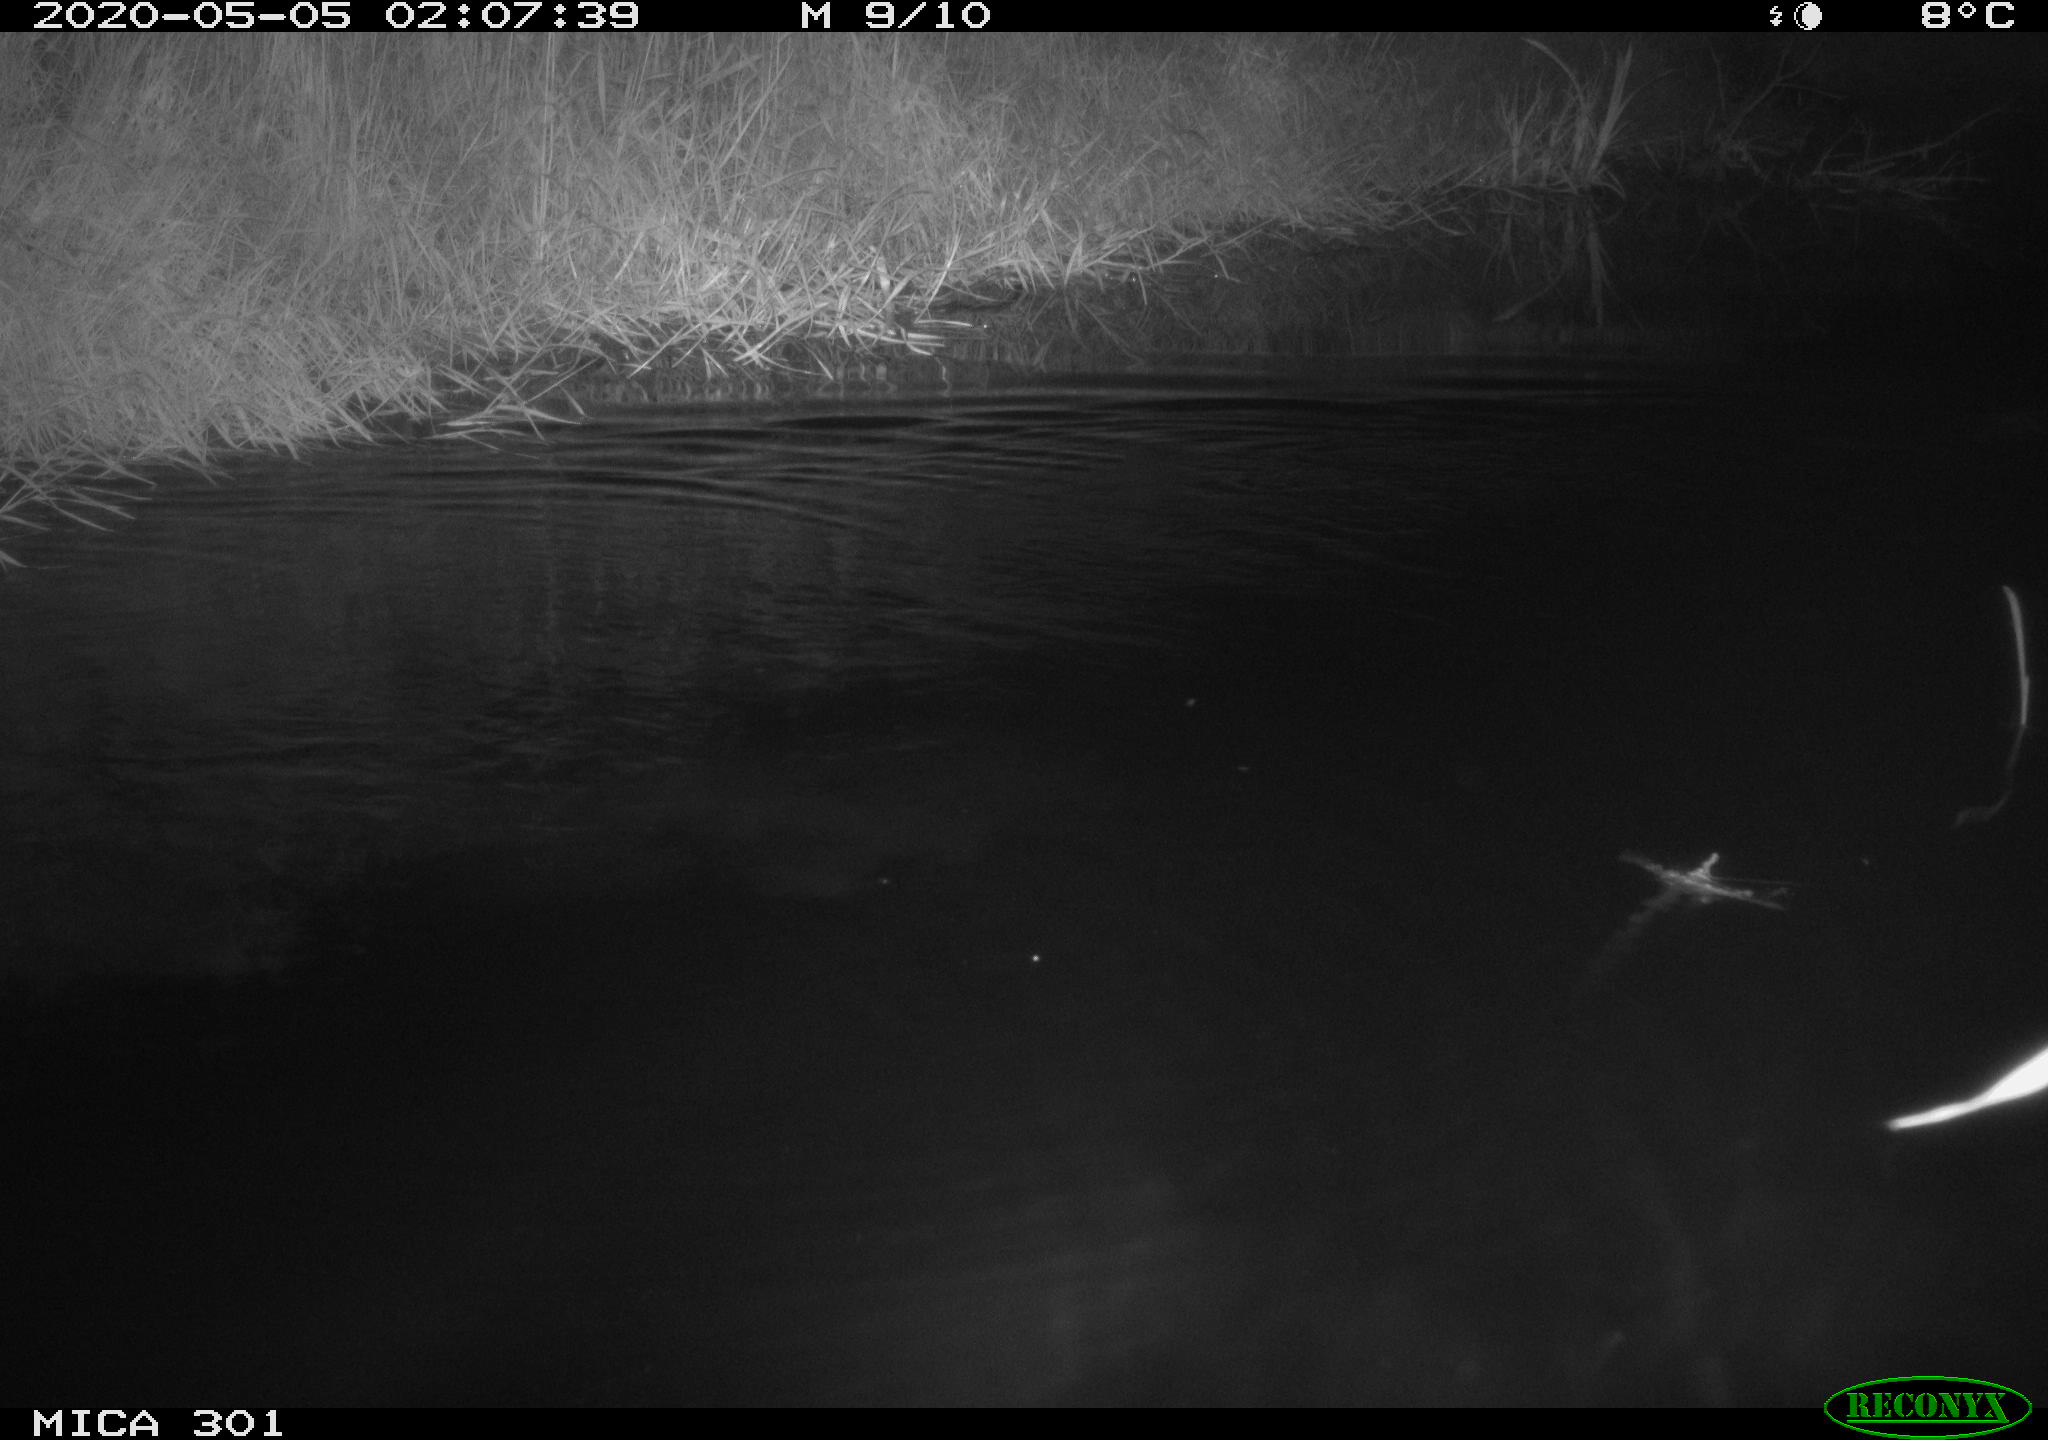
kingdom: Animalia
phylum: Chordata
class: Mammalia
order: Rodentia
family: Castoridae
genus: Castor
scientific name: Castor fiber
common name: Eurasian beaver
